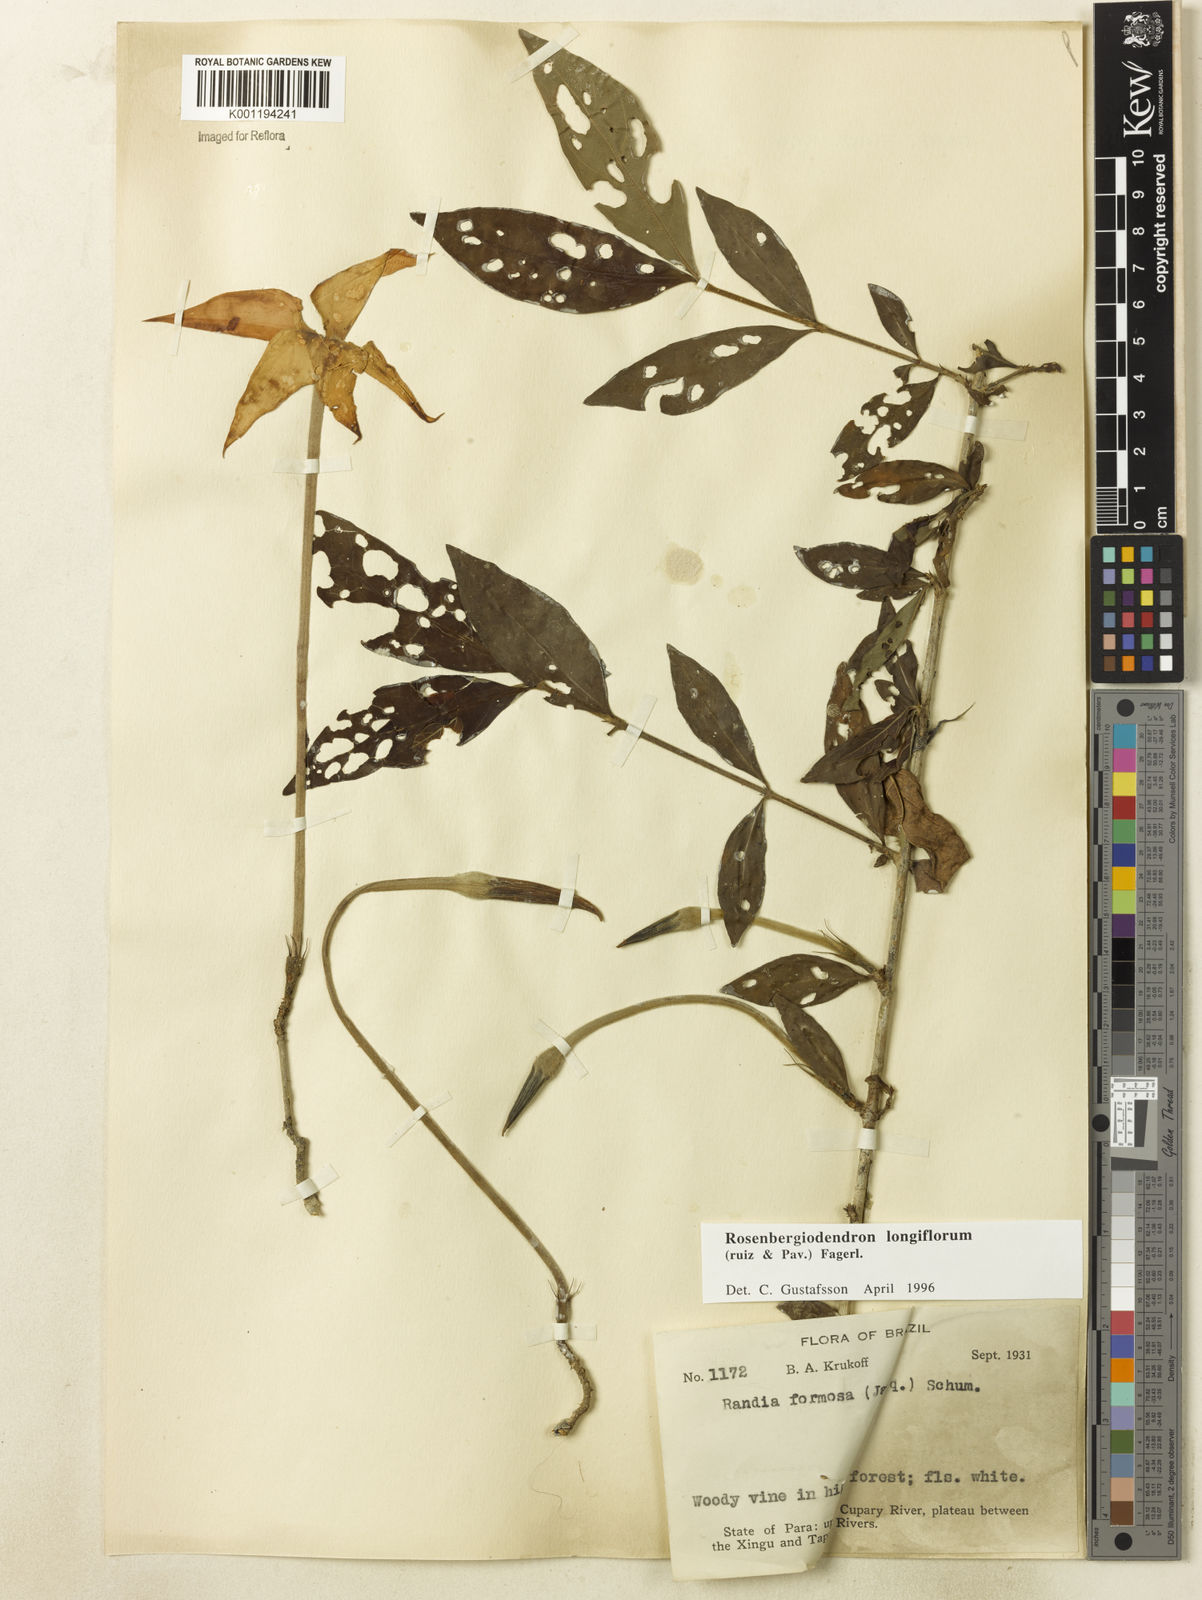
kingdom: Plantae
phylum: Tracheophyta
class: Magnoliopsida
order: Gentianales
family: Rubiaceae
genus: Rosenbergiodendron
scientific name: Rosenbergiodendron longiflorum
